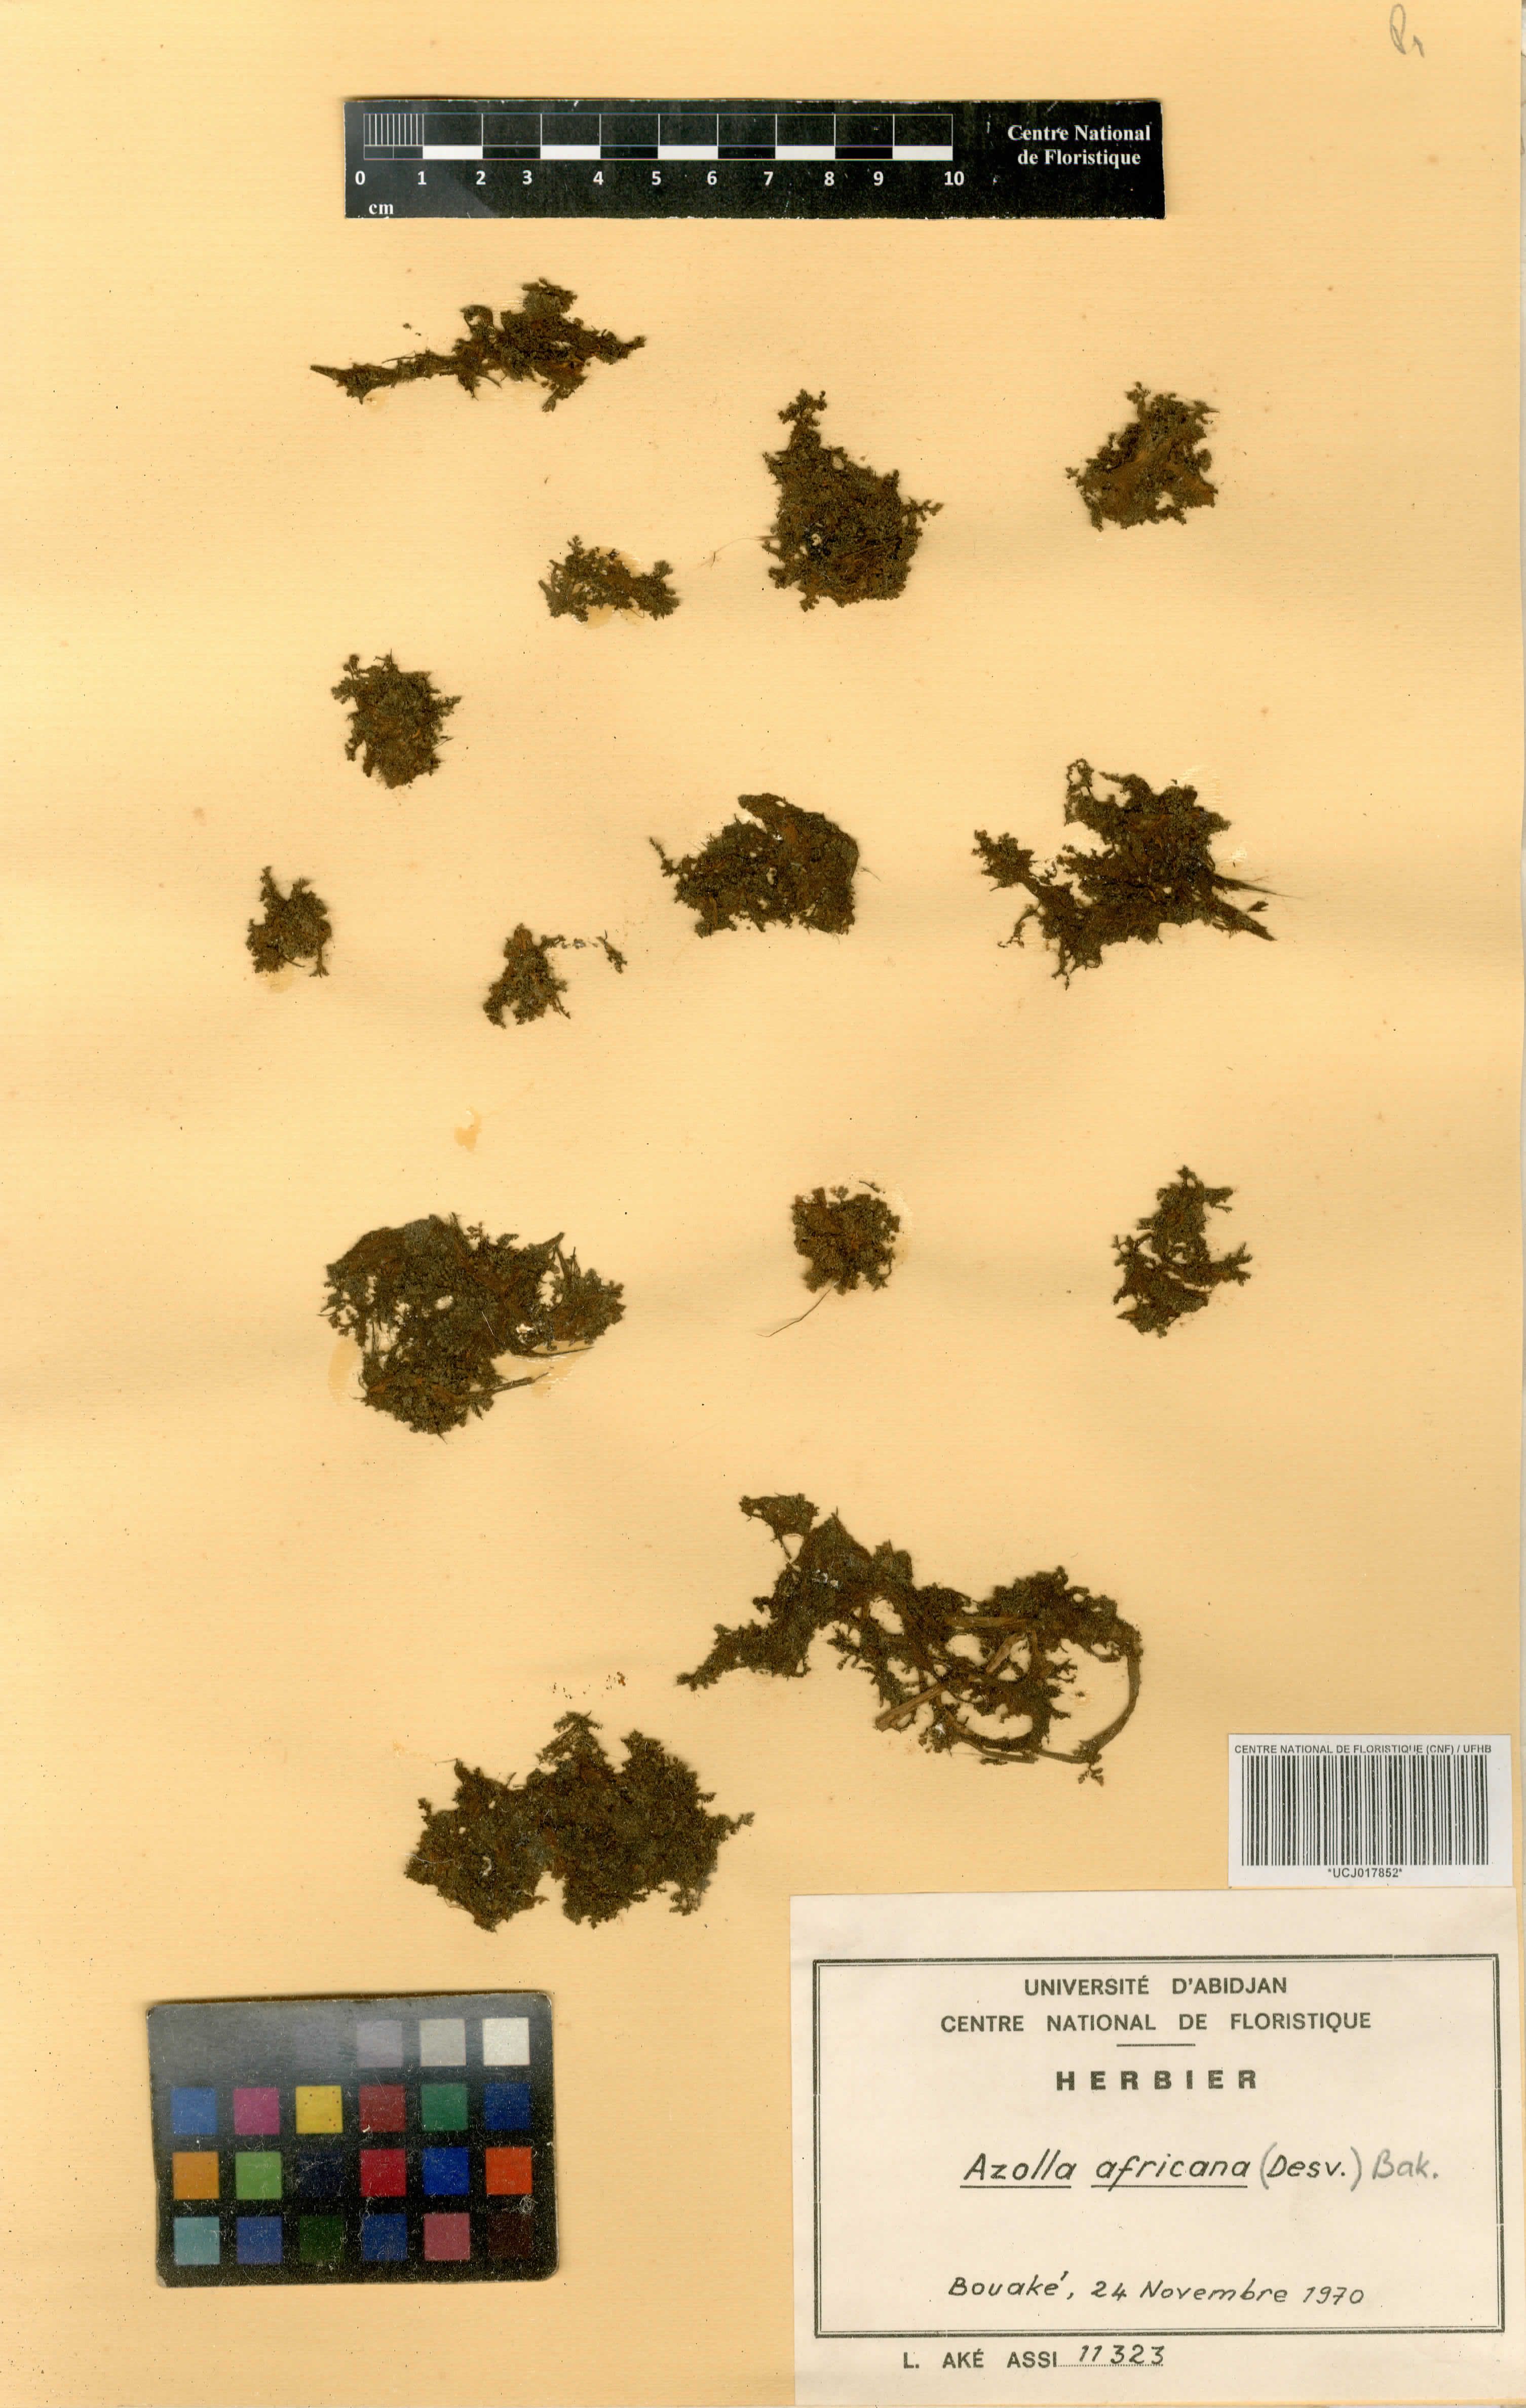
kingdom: Plantae
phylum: Tracheophyta
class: Polypodiopsida
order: Salviniales
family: Salviniaceae
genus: Azolla
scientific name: Azolla pinnata
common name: Ferny azolla
